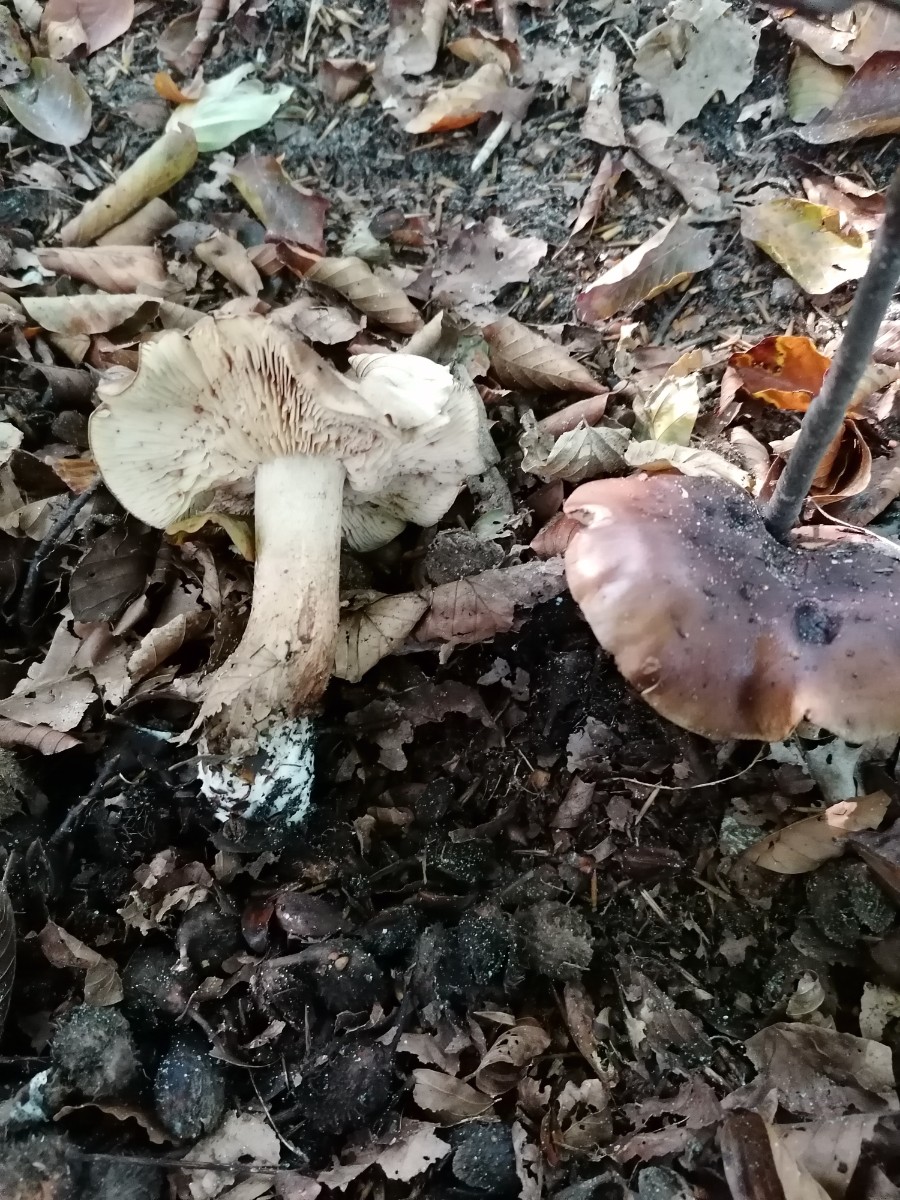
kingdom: Fungi
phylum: Basidiomycota
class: Agaricomycetes
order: Agaricales
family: Tricholomataceae
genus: Tricholoma
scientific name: Tricholoma ustale
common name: sveden ridderhat
